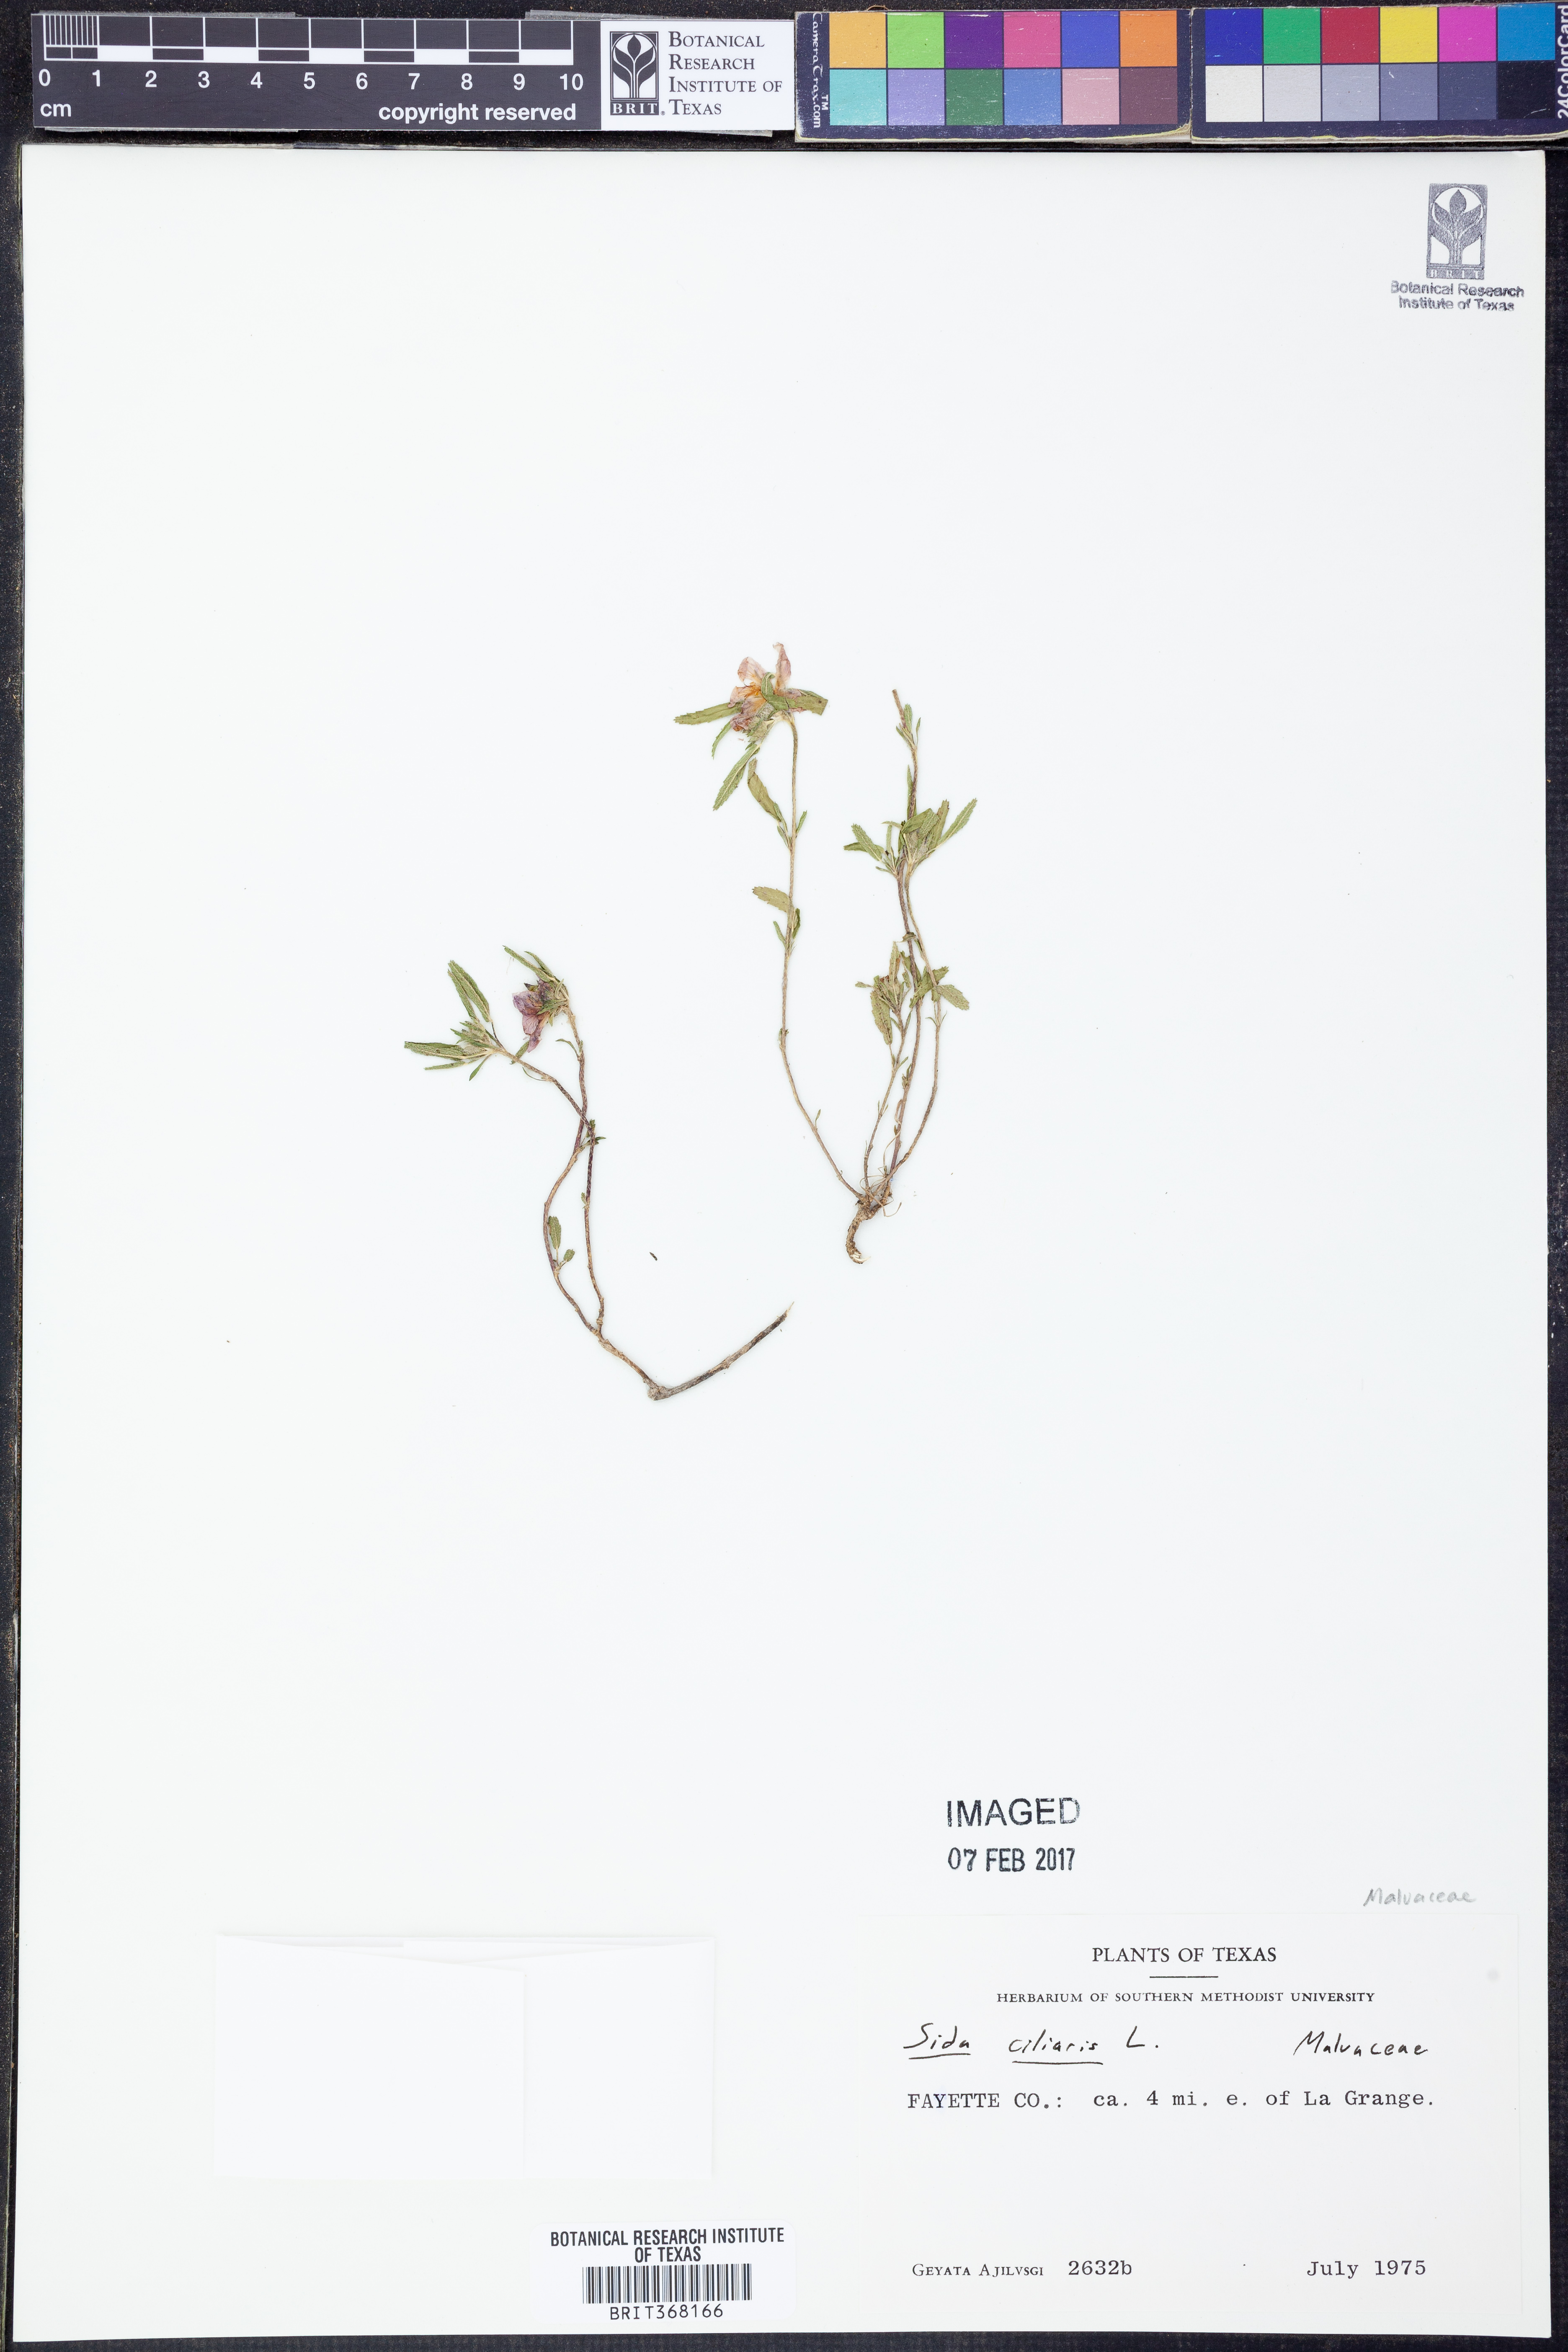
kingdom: Plantae
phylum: Tracheophyta
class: Magnoliopsida
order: Malvales
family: Malvaceae
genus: Sida
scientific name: Sida ciliaris
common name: Bracted fanpetals
